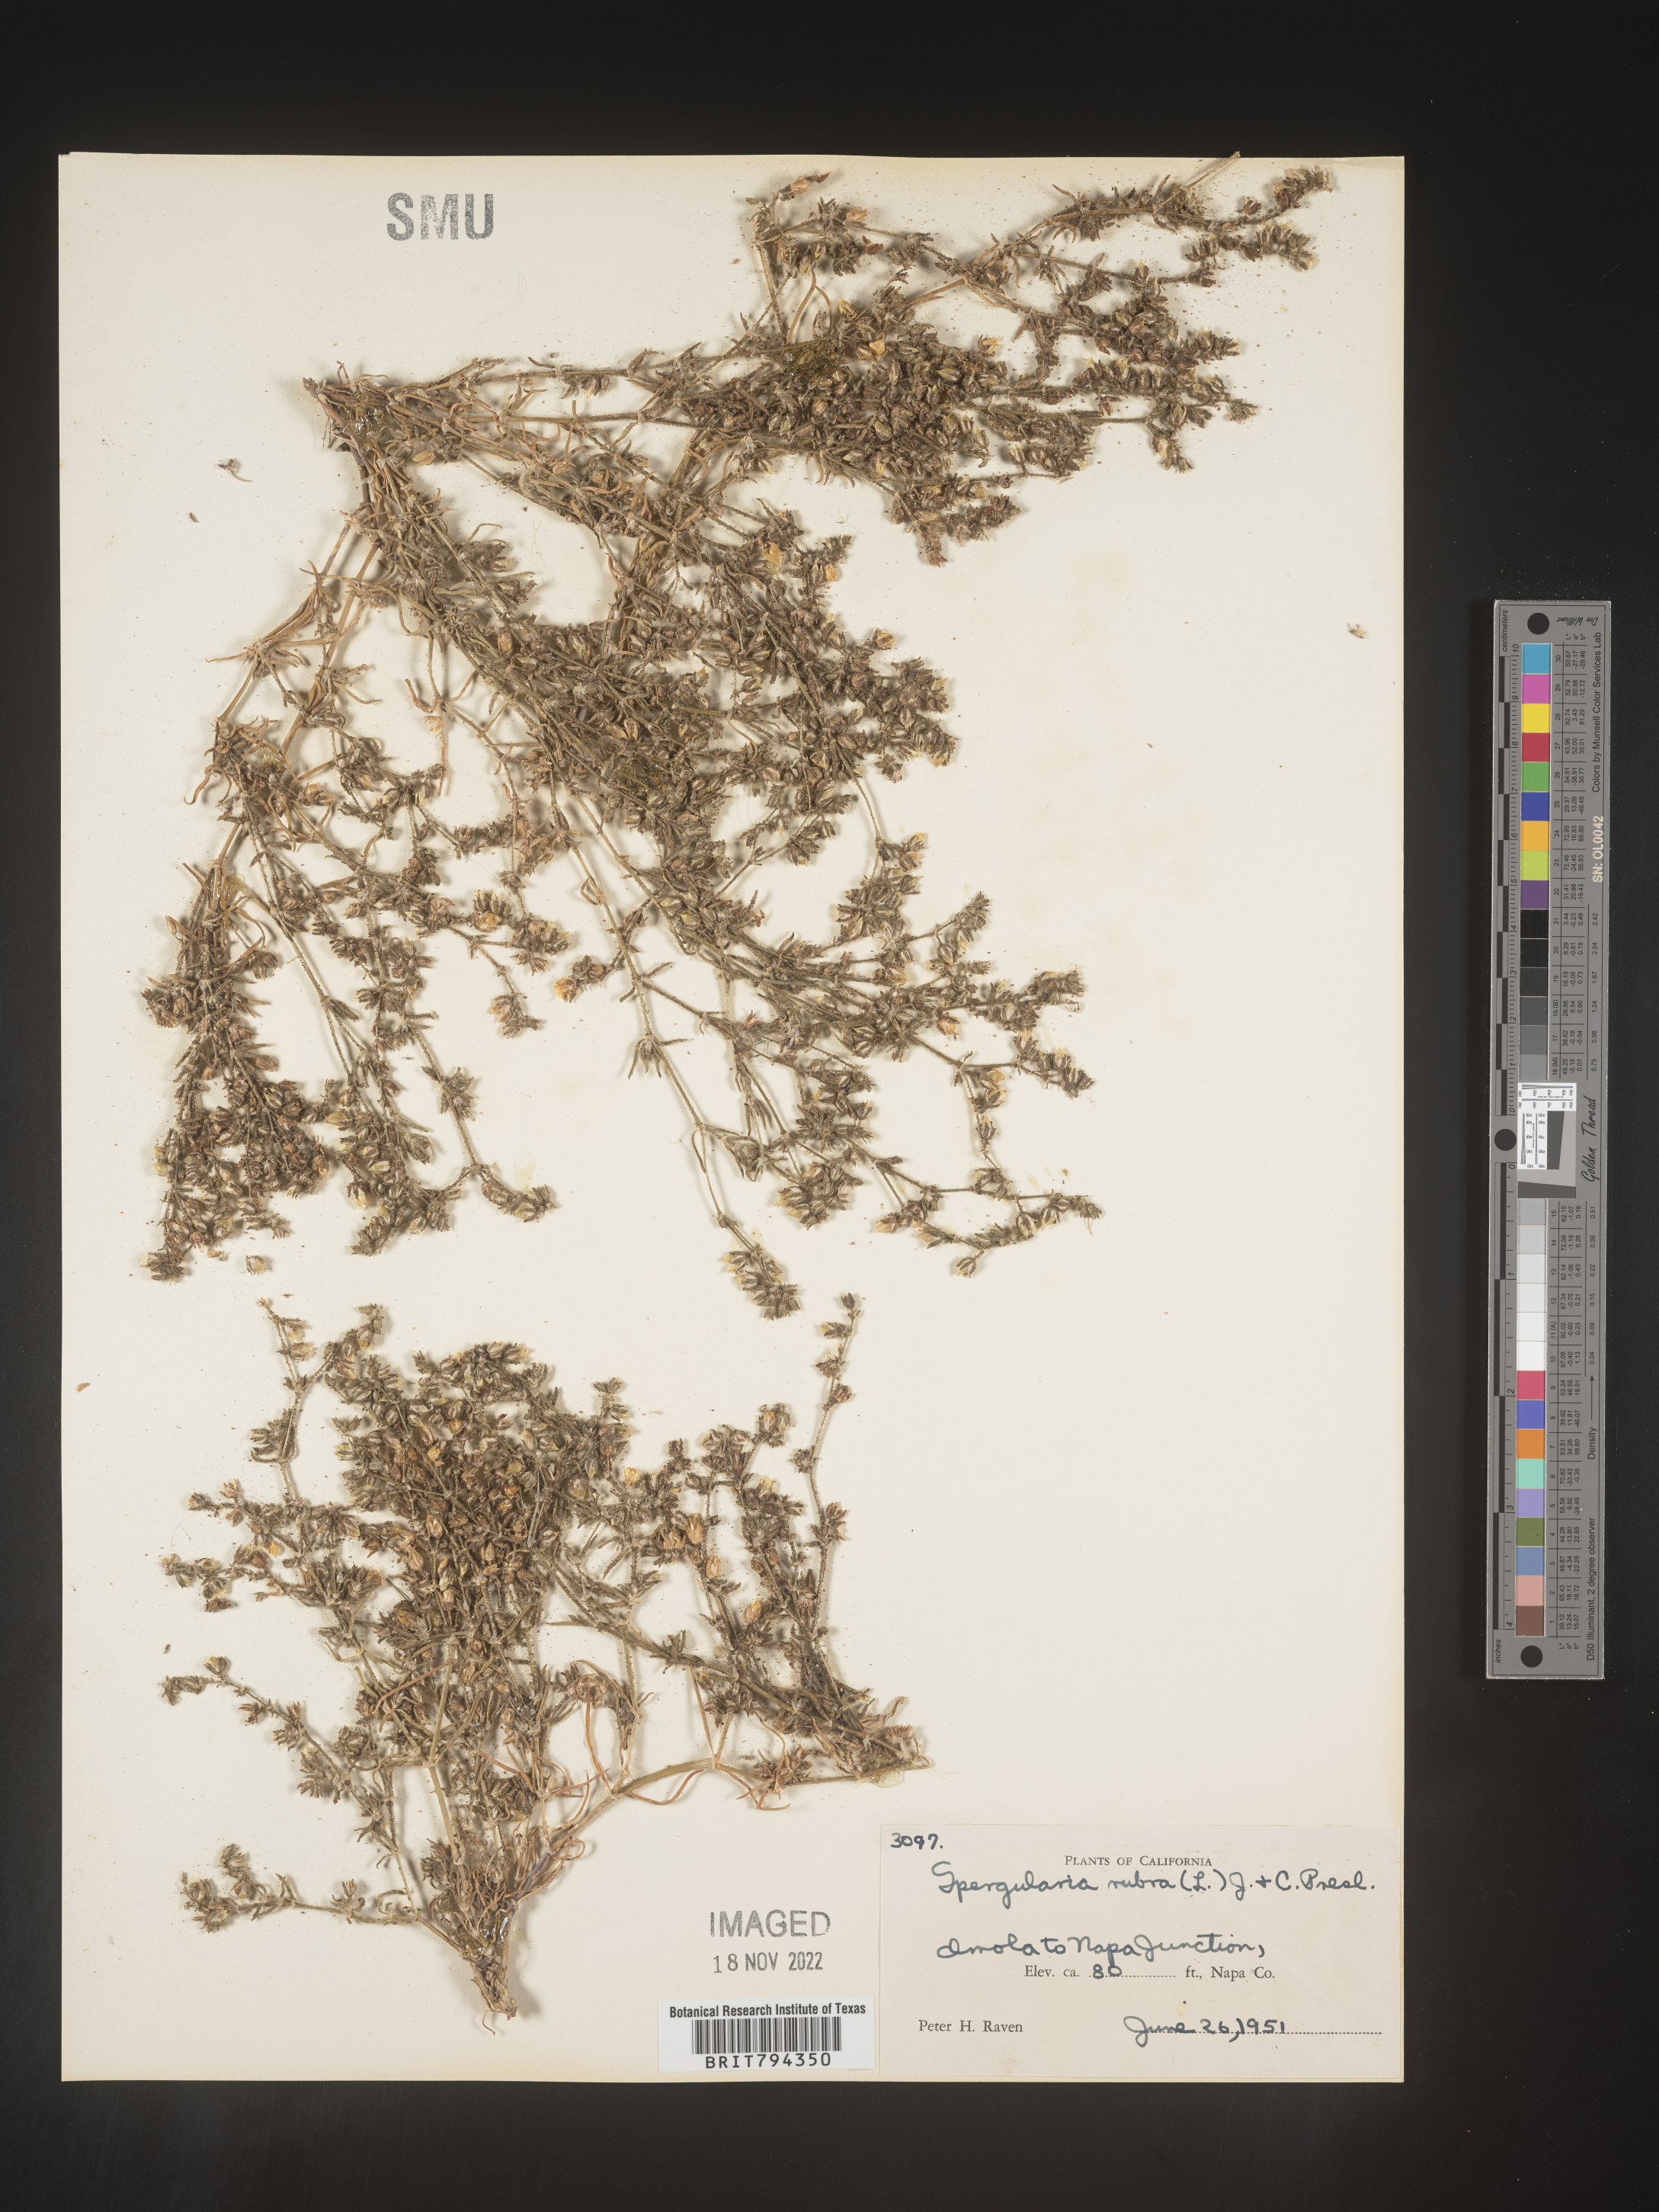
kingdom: Plantae
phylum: Tracheophyta
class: Magnoliopsida
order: Caryophyllales
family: Caryophyllaceae
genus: Spergularia
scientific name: Spergularia rubra
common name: Red sand-spurrey
